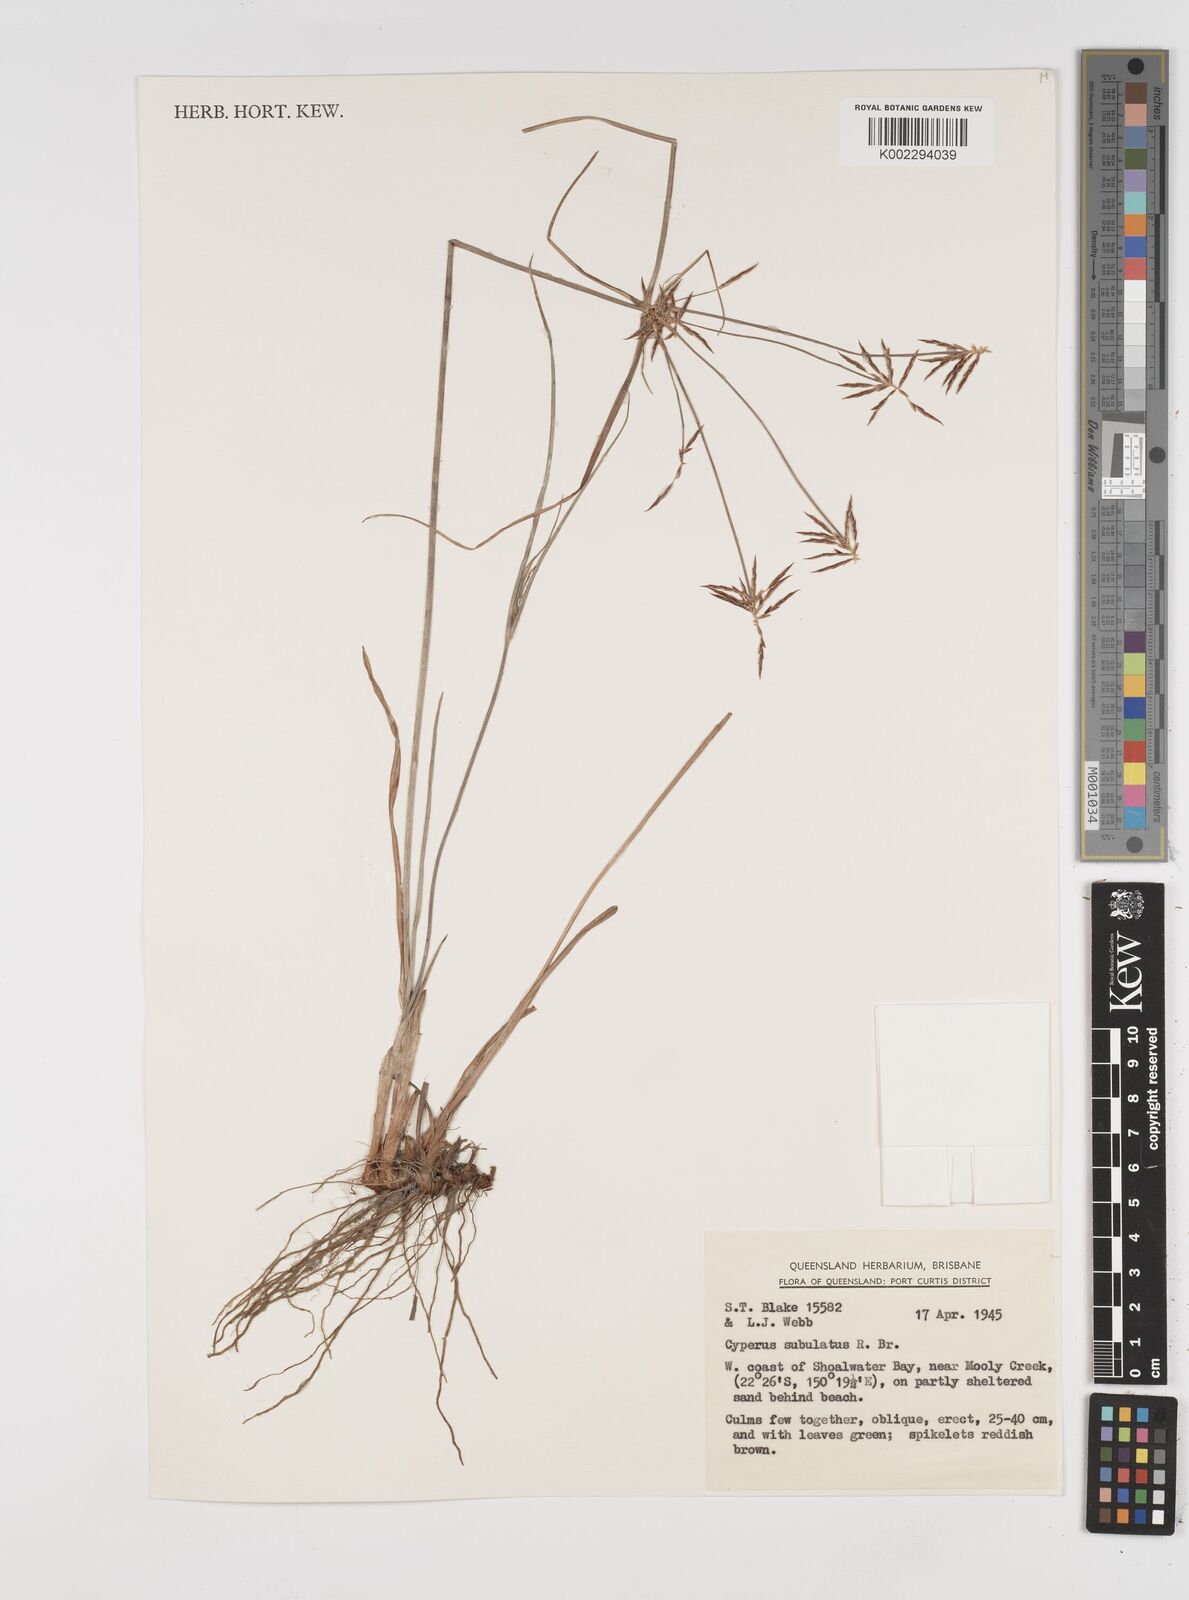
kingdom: Plantae
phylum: Tracheophyta
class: Liliopsida
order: Poales
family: Cyperaceae
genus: Cyperus
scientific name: Cyperus subulatus
